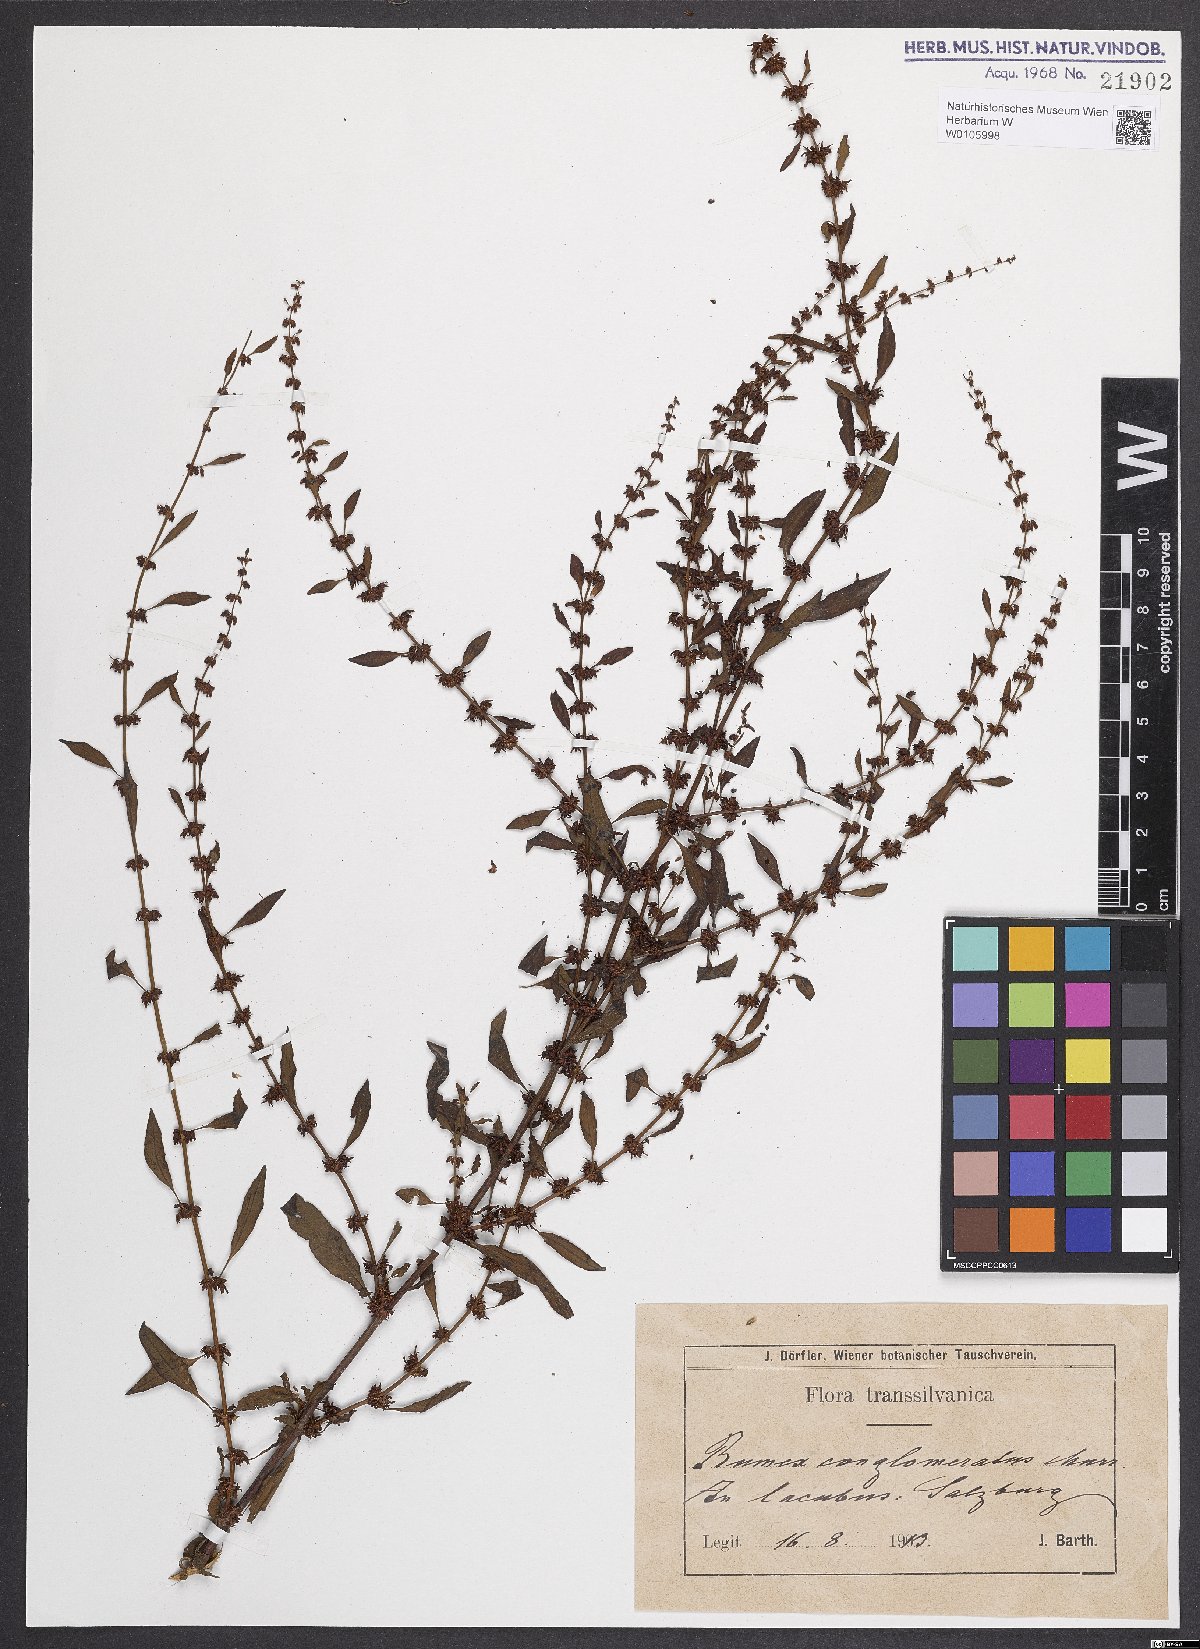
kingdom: Plantae
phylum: Tracheophyta
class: Magnoliopsida
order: Caryophyllales
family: Polygonaceae
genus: Rumex
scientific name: Rumex conglomeratus
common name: Clustered dock
